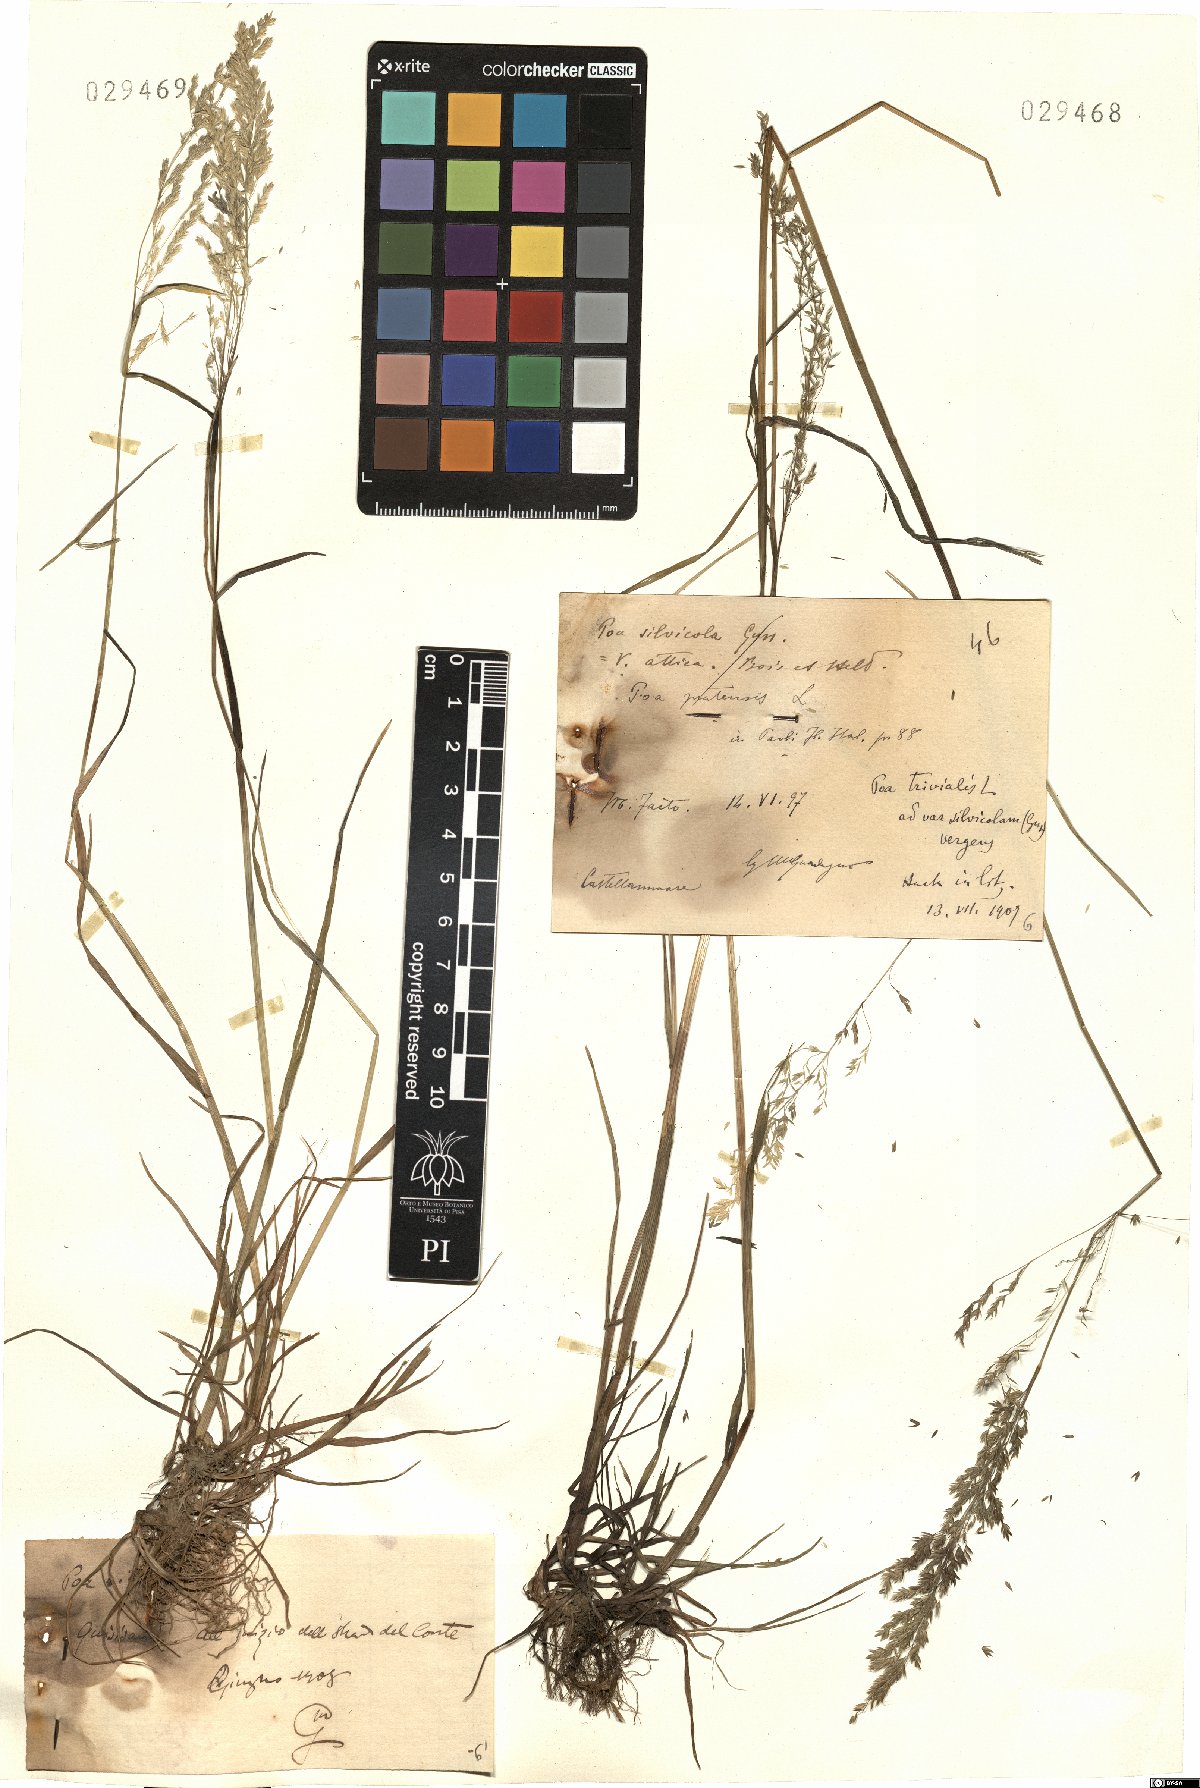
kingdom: Plantae
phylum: Tracheophyta
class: Liliopsida
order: Poales
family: Poaceae
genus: Poa
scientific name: Poa trivialis
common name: Rough bluegrass
